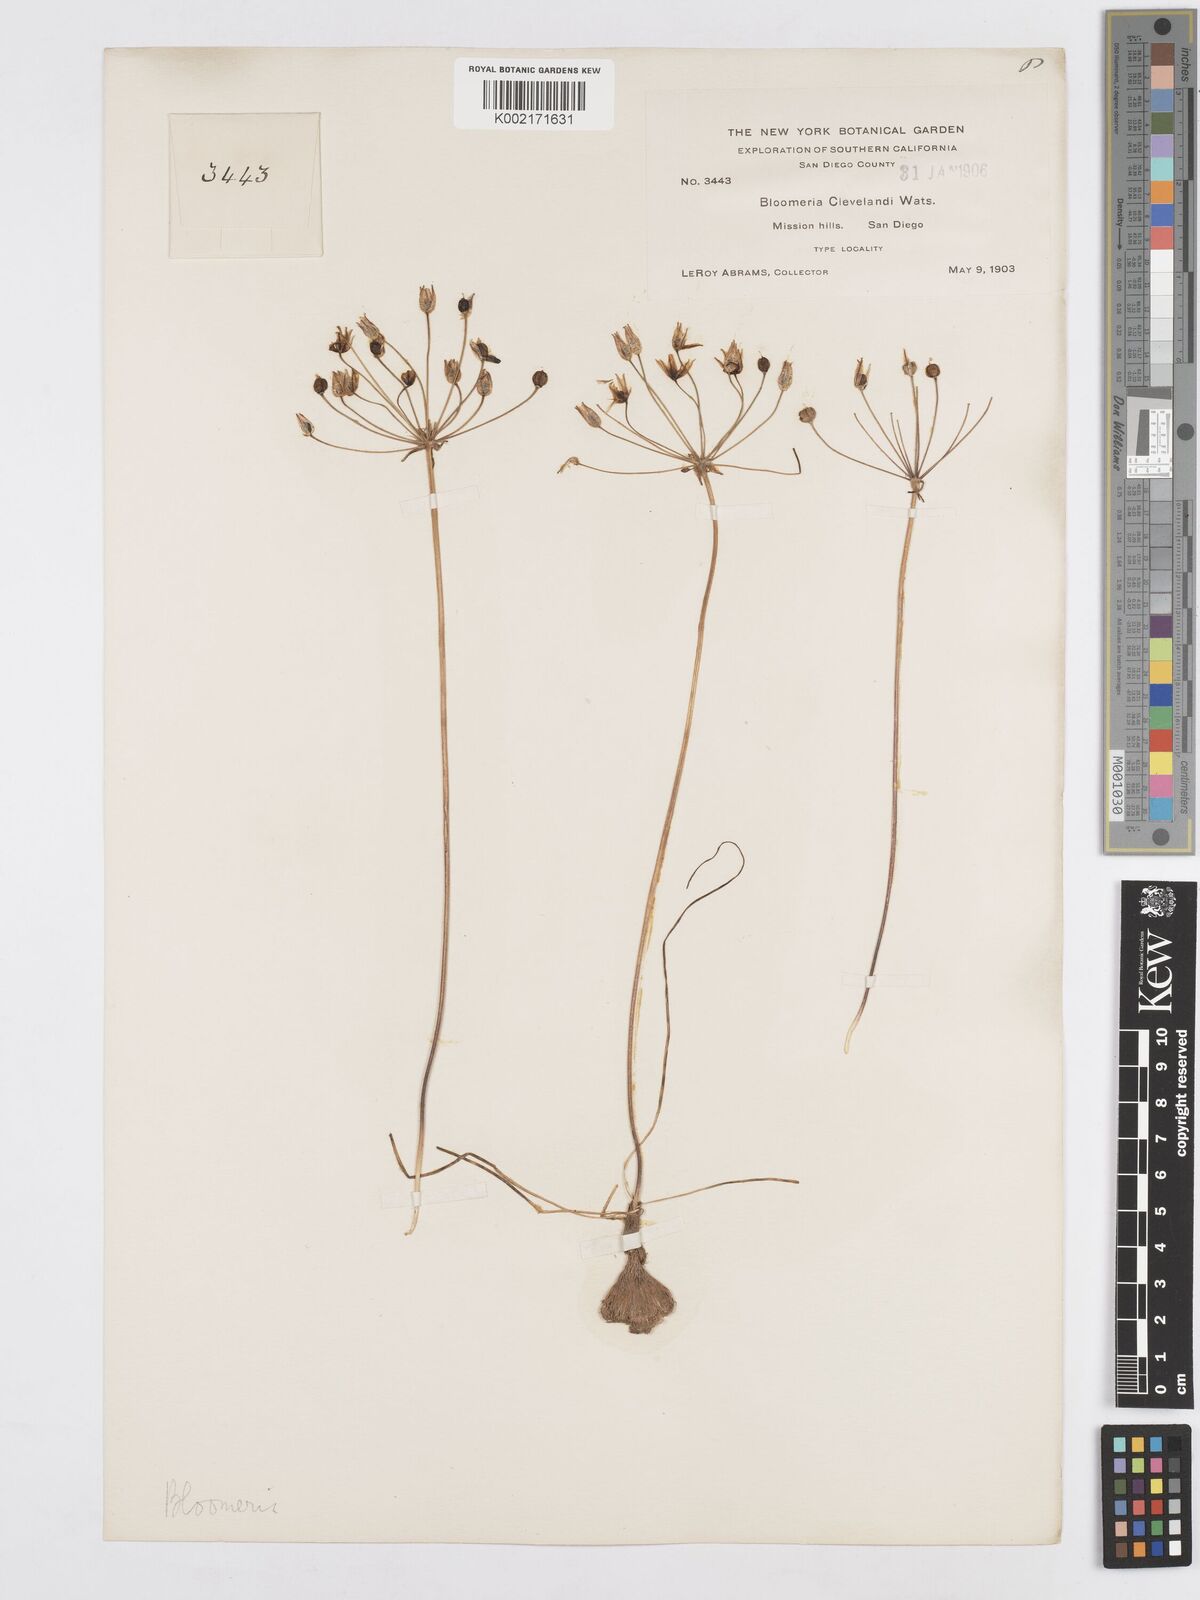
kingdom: Plantae
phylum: Tracheophyta
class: Liliopsida
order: Asparagales
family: Asparagaceae
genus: Bloomeria
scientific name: Bloomeria clevelandii
